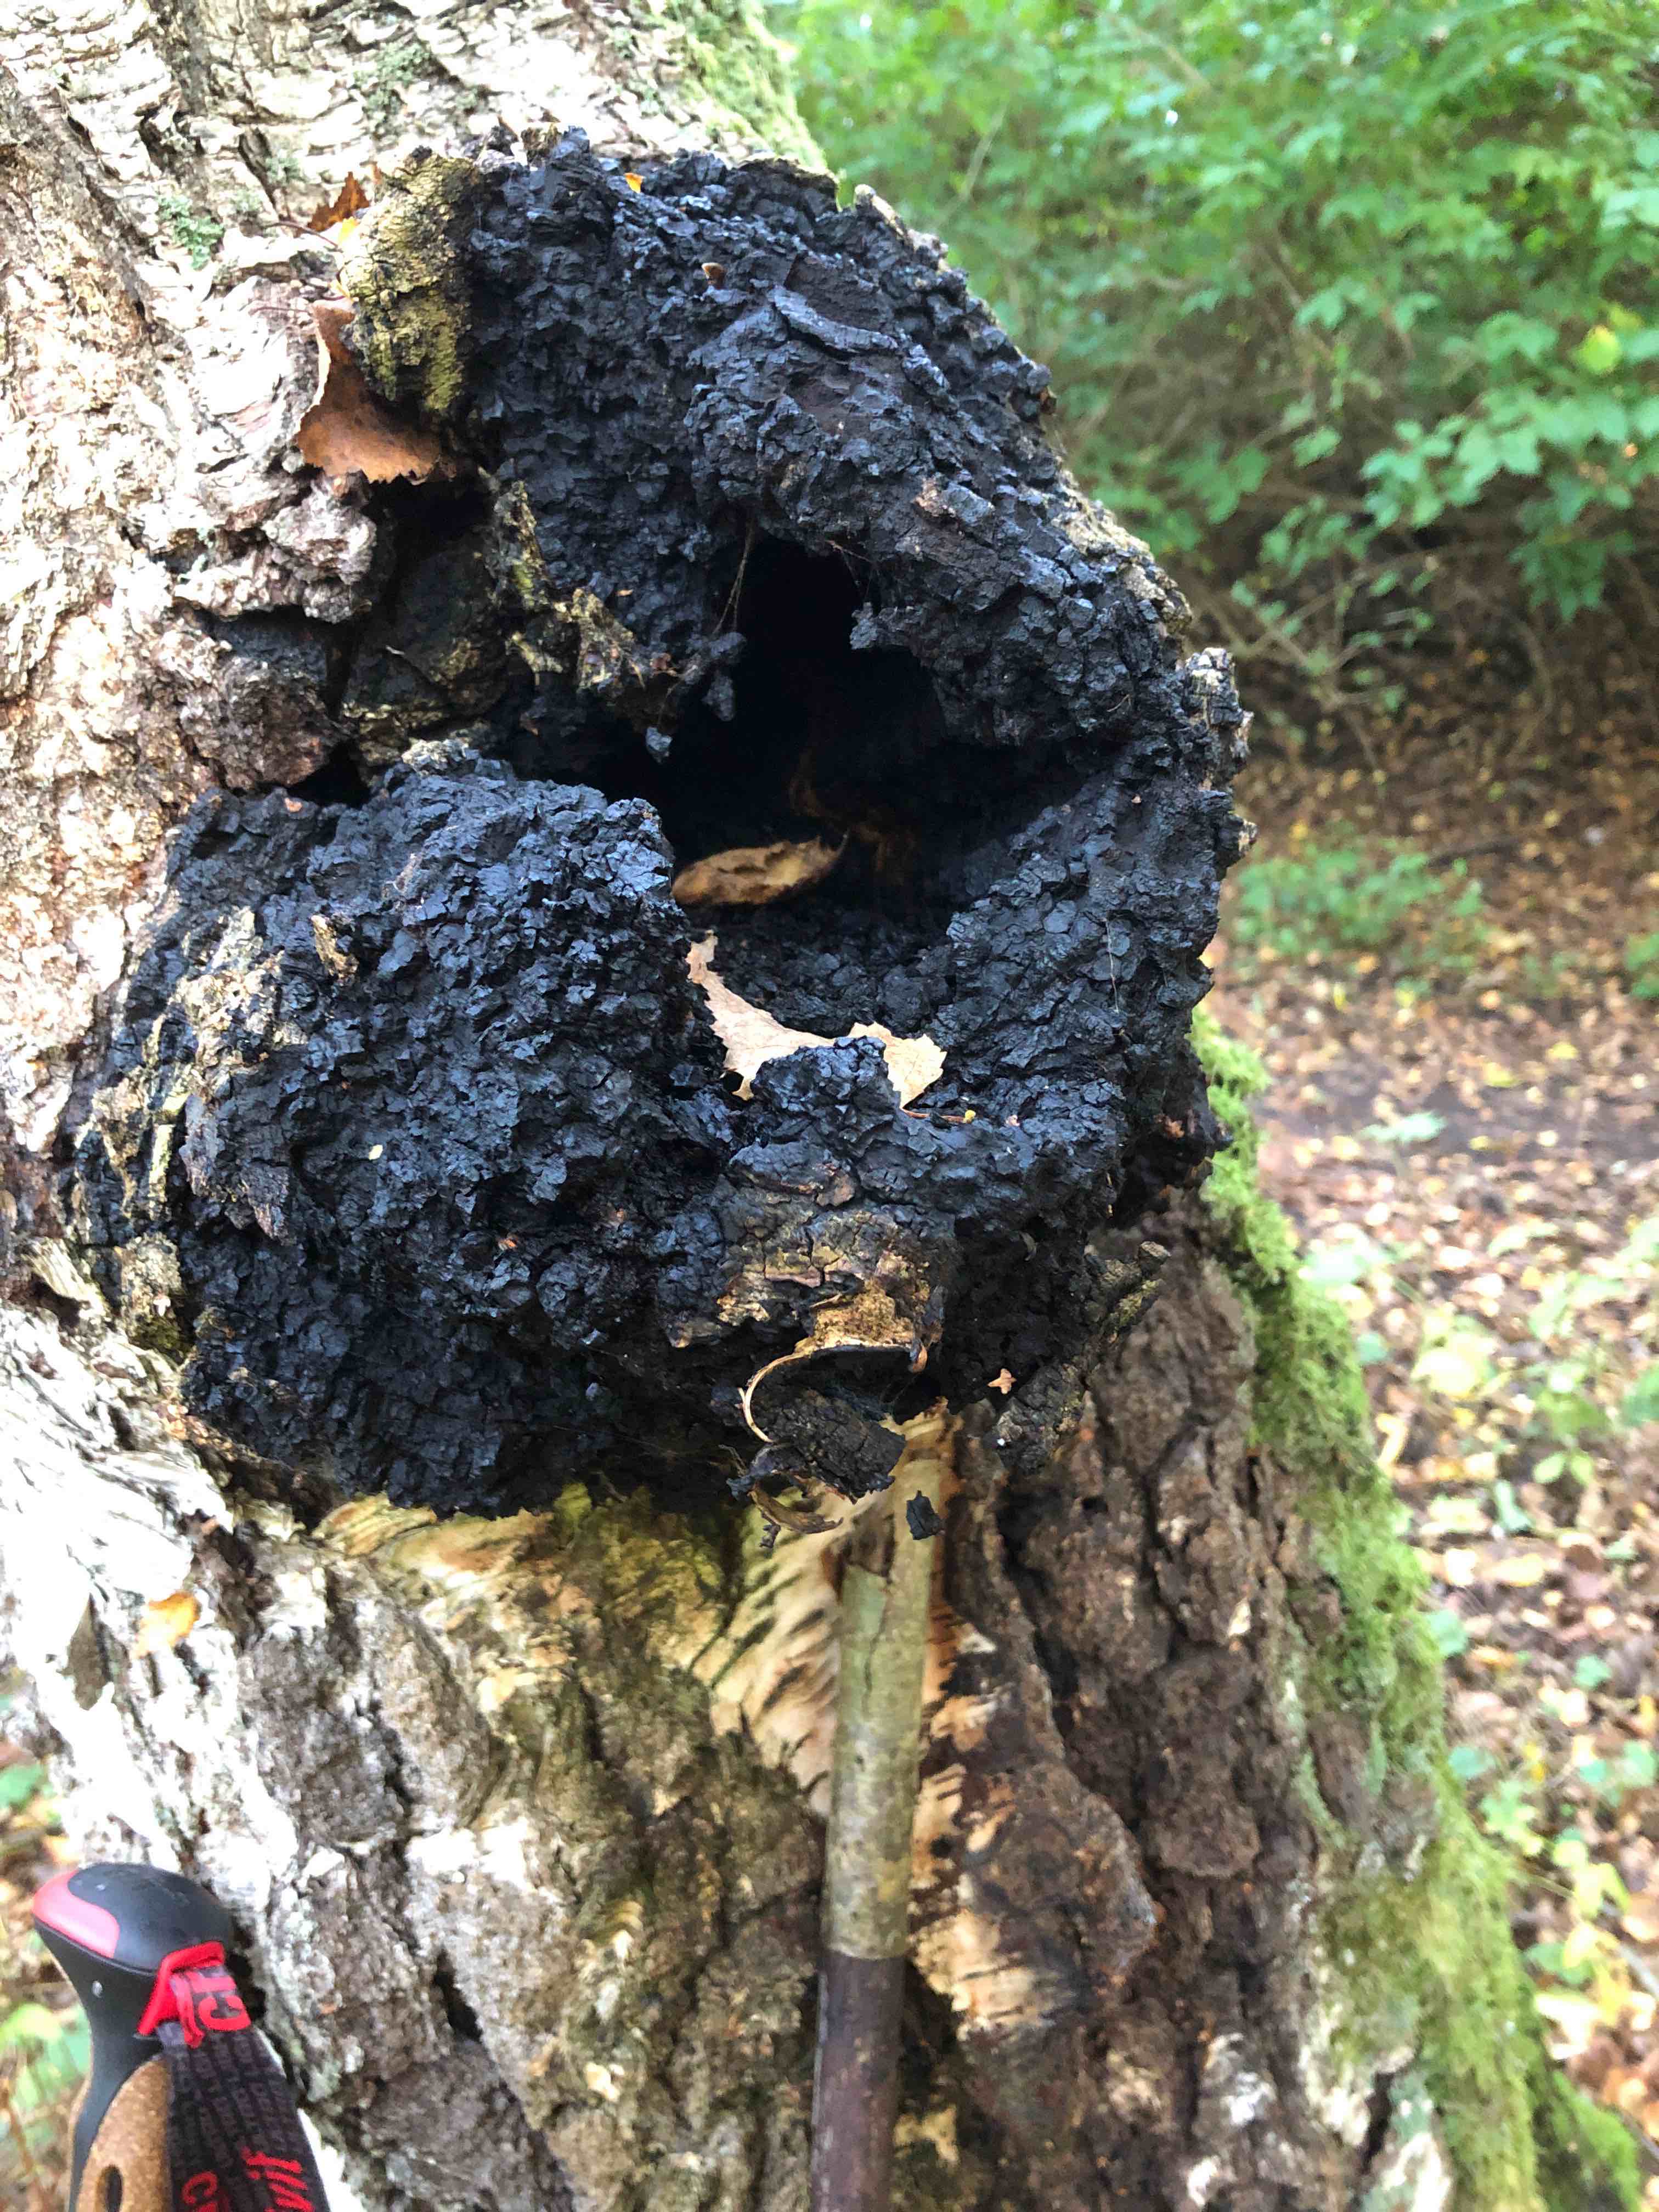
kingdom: Fungi
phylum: Basidiomycota
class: Agaricomycetes
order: Hymenochaetales
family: Hymenochaetaceae
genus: Inonotus
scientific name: Inonotus obliquus
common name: birke-spejlporesvamp
